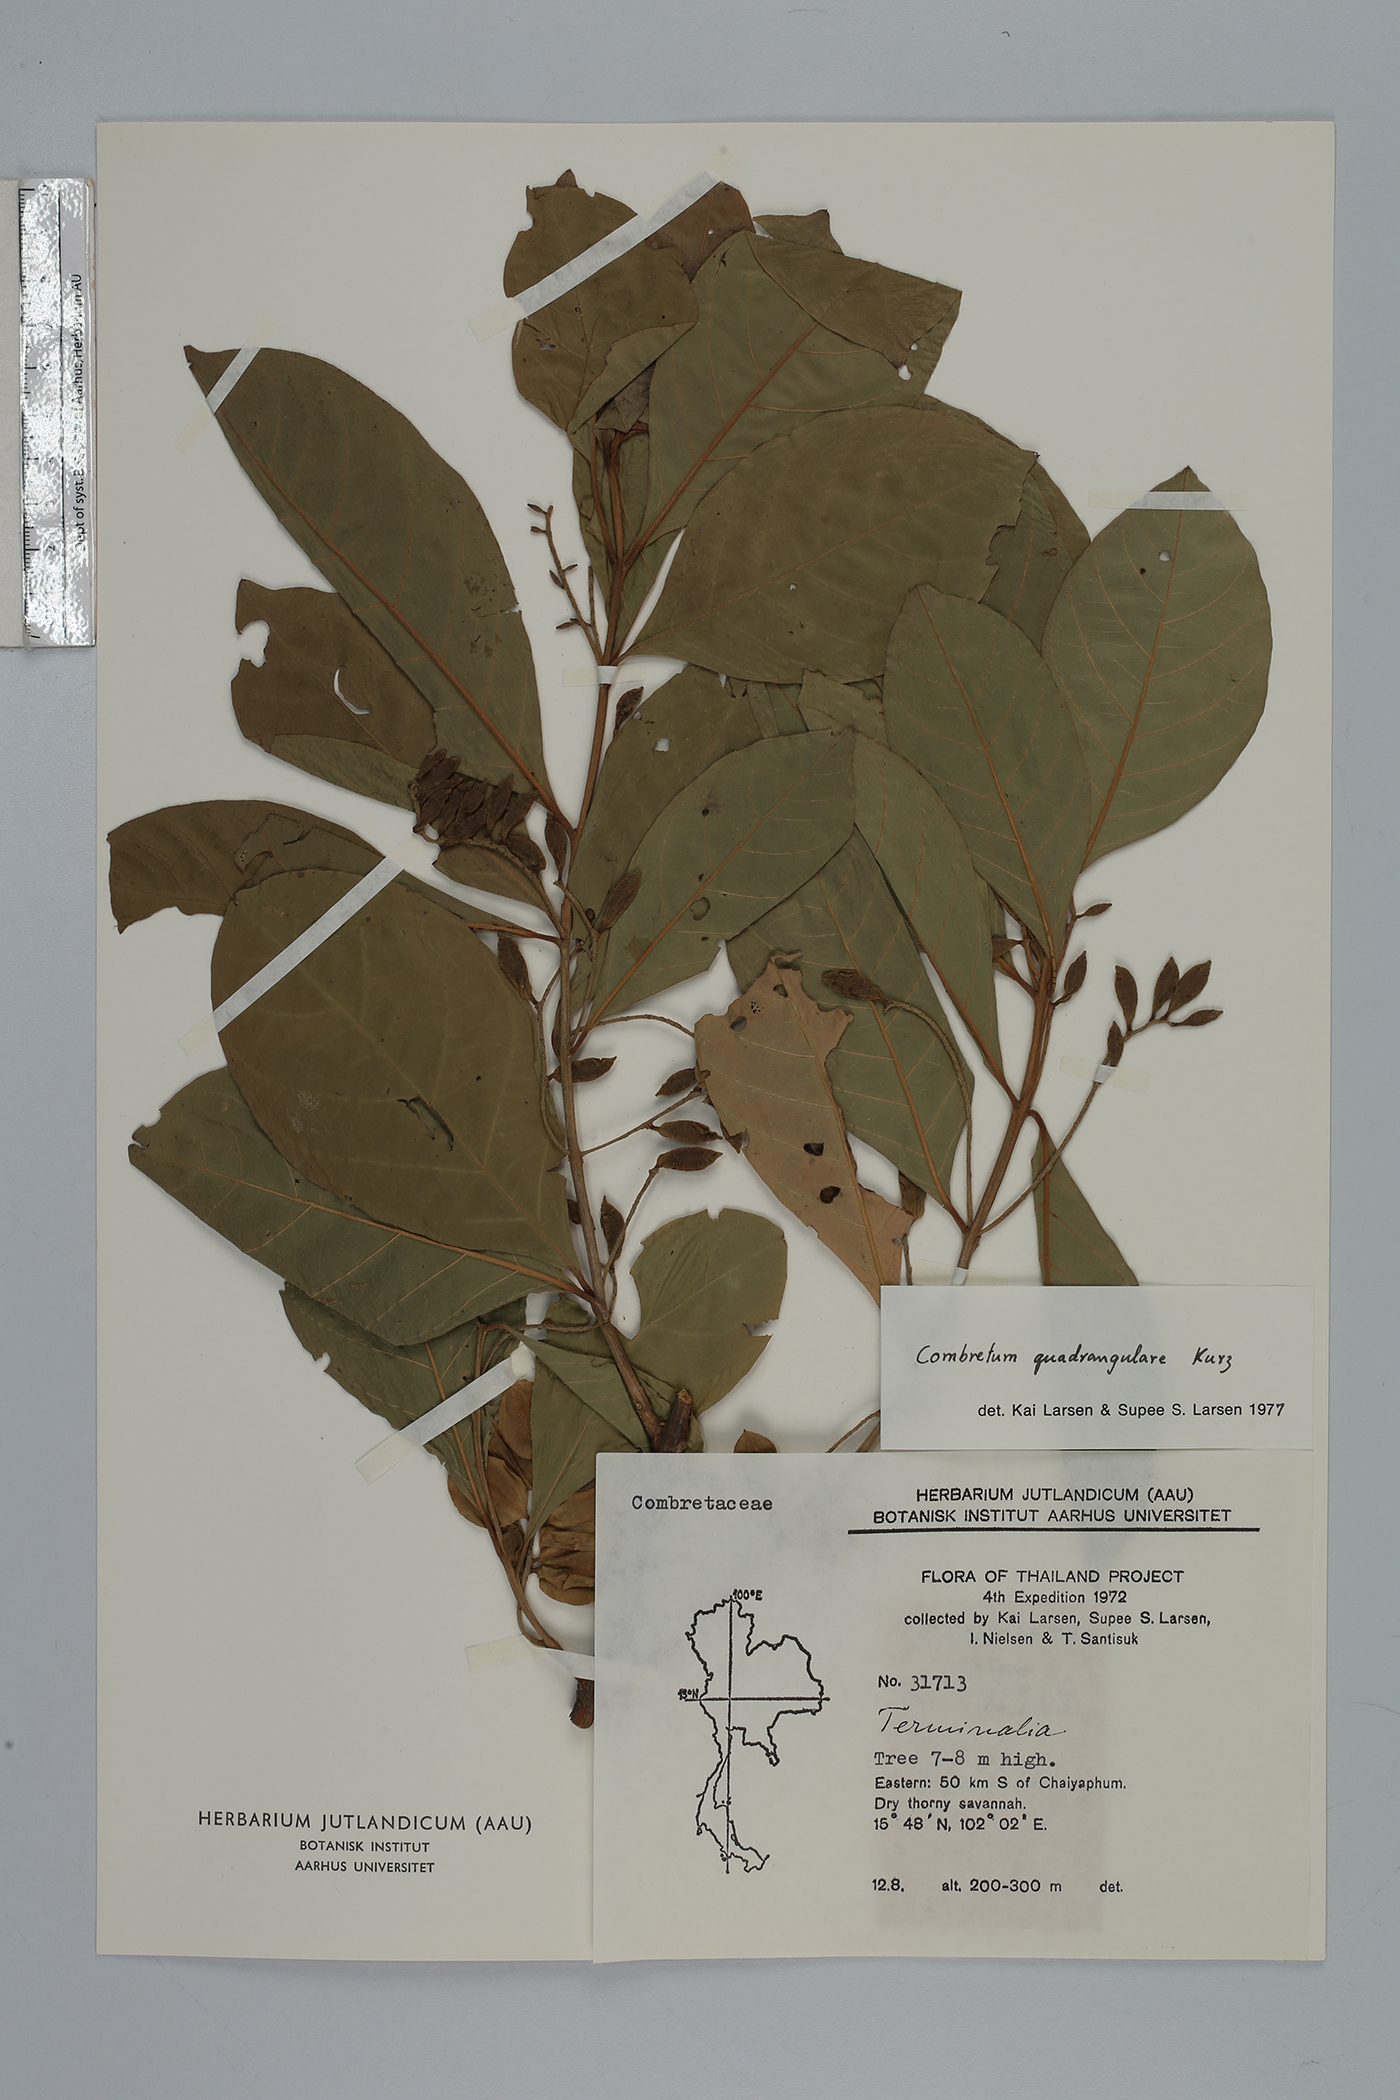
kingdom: Plantae
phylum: Tracheophyta
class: Magnoliopsida
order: Myrtales
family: Combretaceae
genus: Combretum
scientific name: Combretum quadrangulare
